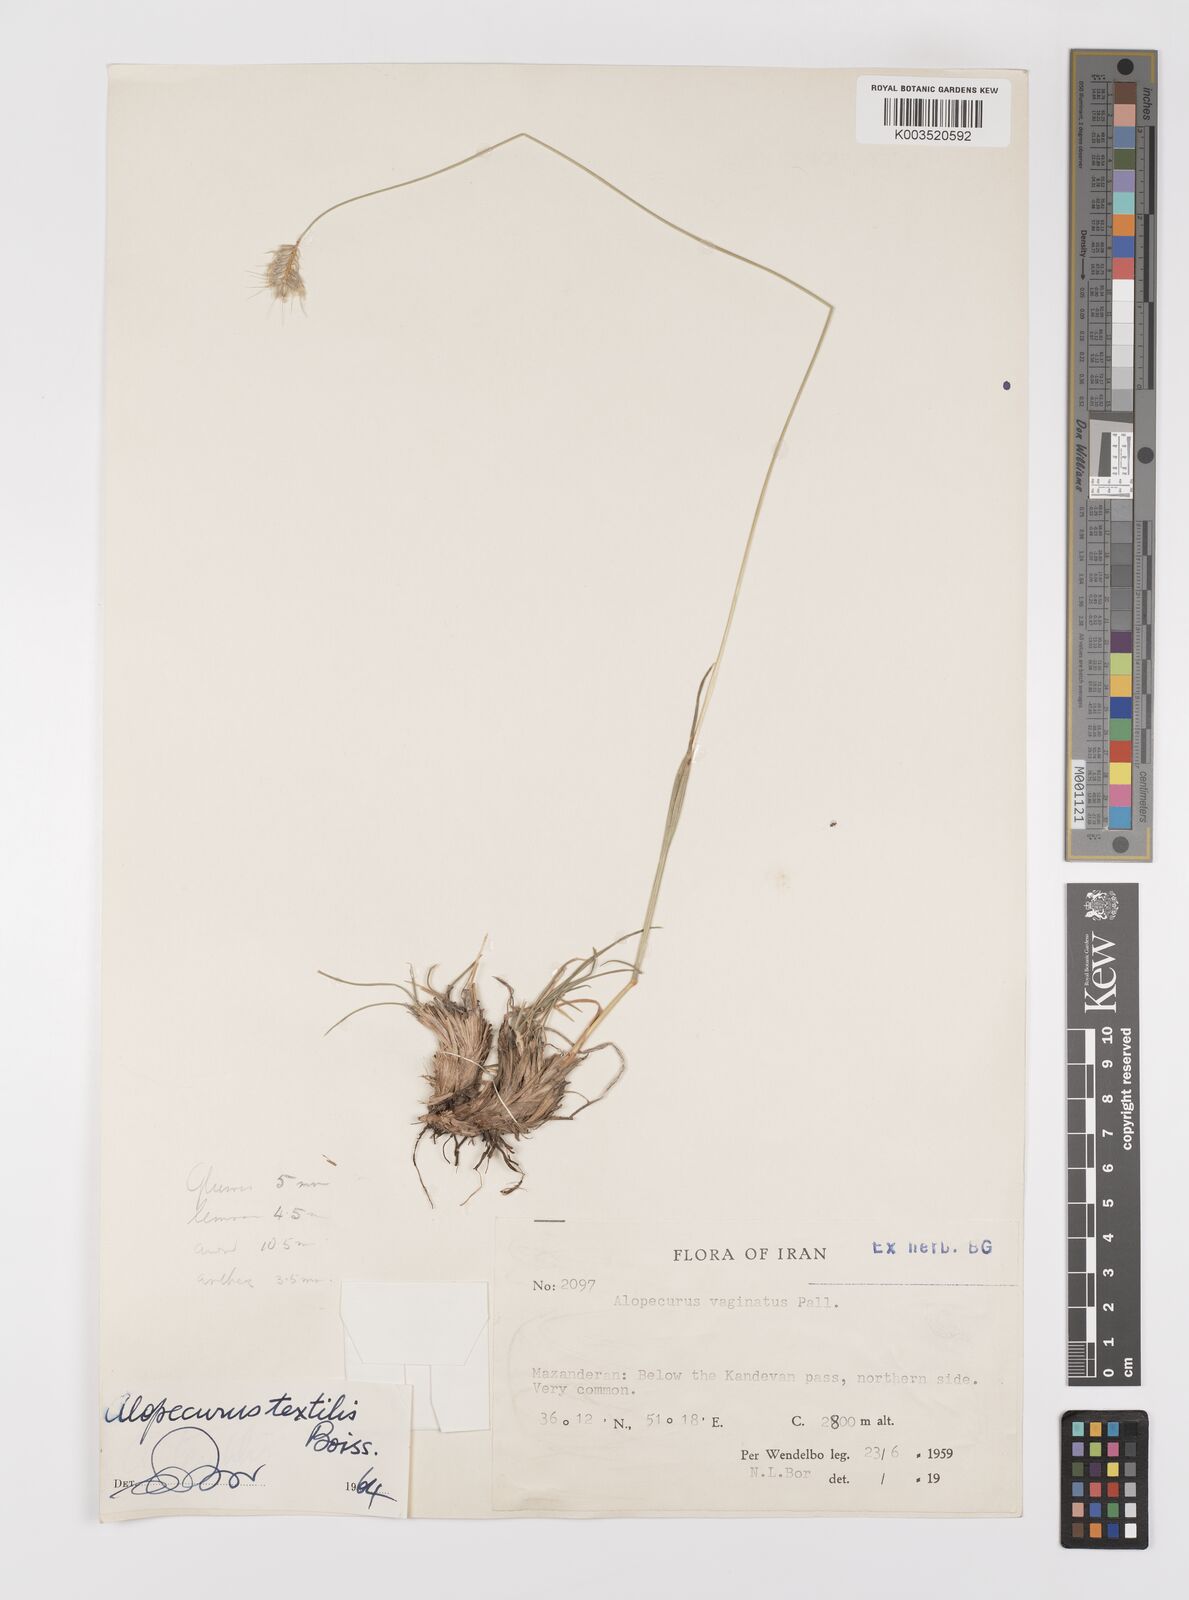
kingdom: Plantae
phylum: Tracheophyta
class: Liliopsida
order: Poales
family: Poaceae
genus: Alopecurus
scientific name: Alopecurus textilis
